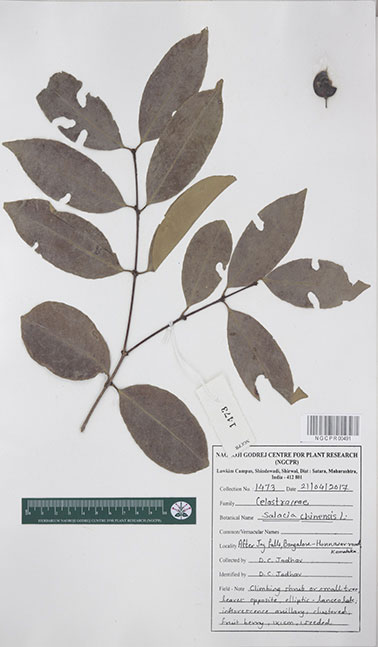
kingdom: Plantae
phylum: Tracheophyta
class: Magnoliopsida
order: Celastrales
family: Celastraceae
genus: Salacia
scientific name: Salacia chinensis
